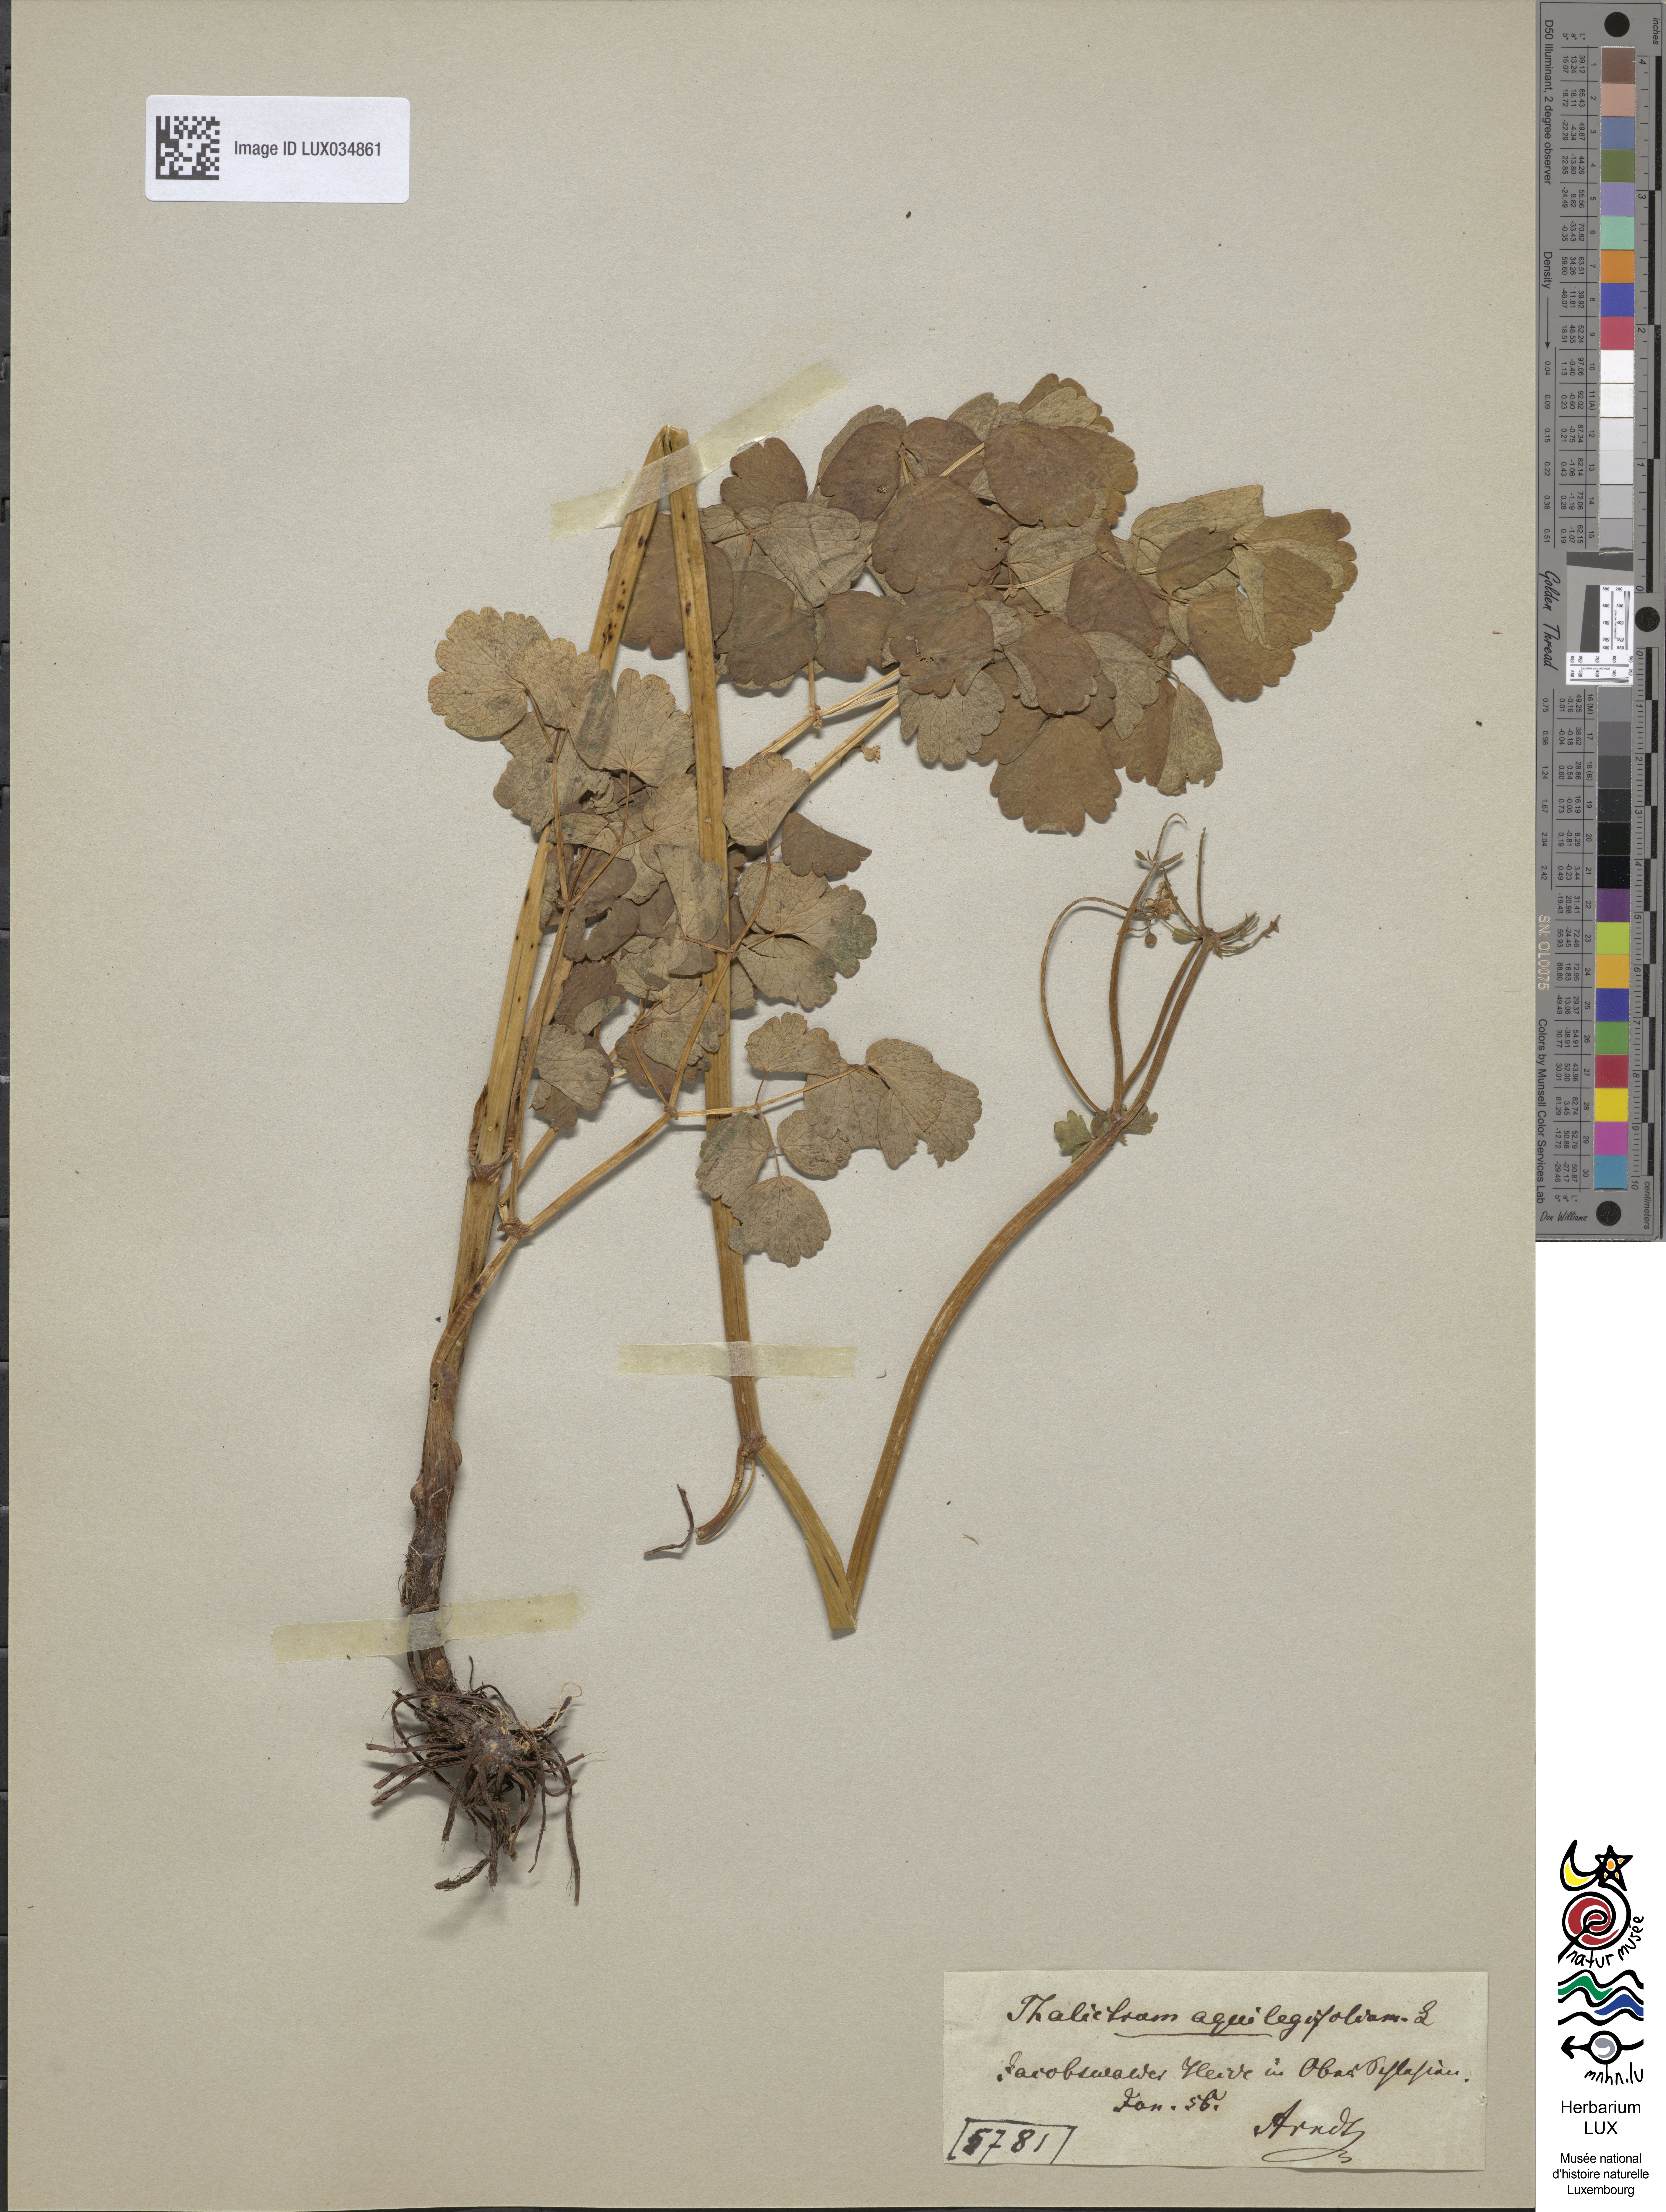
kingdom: Plantae
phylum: Tracheophyta
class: Magnoliopsida
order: Ranunculales
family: Ranunculaceae
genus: Thalictrum
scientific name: Thalictrum aquilegiifolium
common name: French meadow-rue
